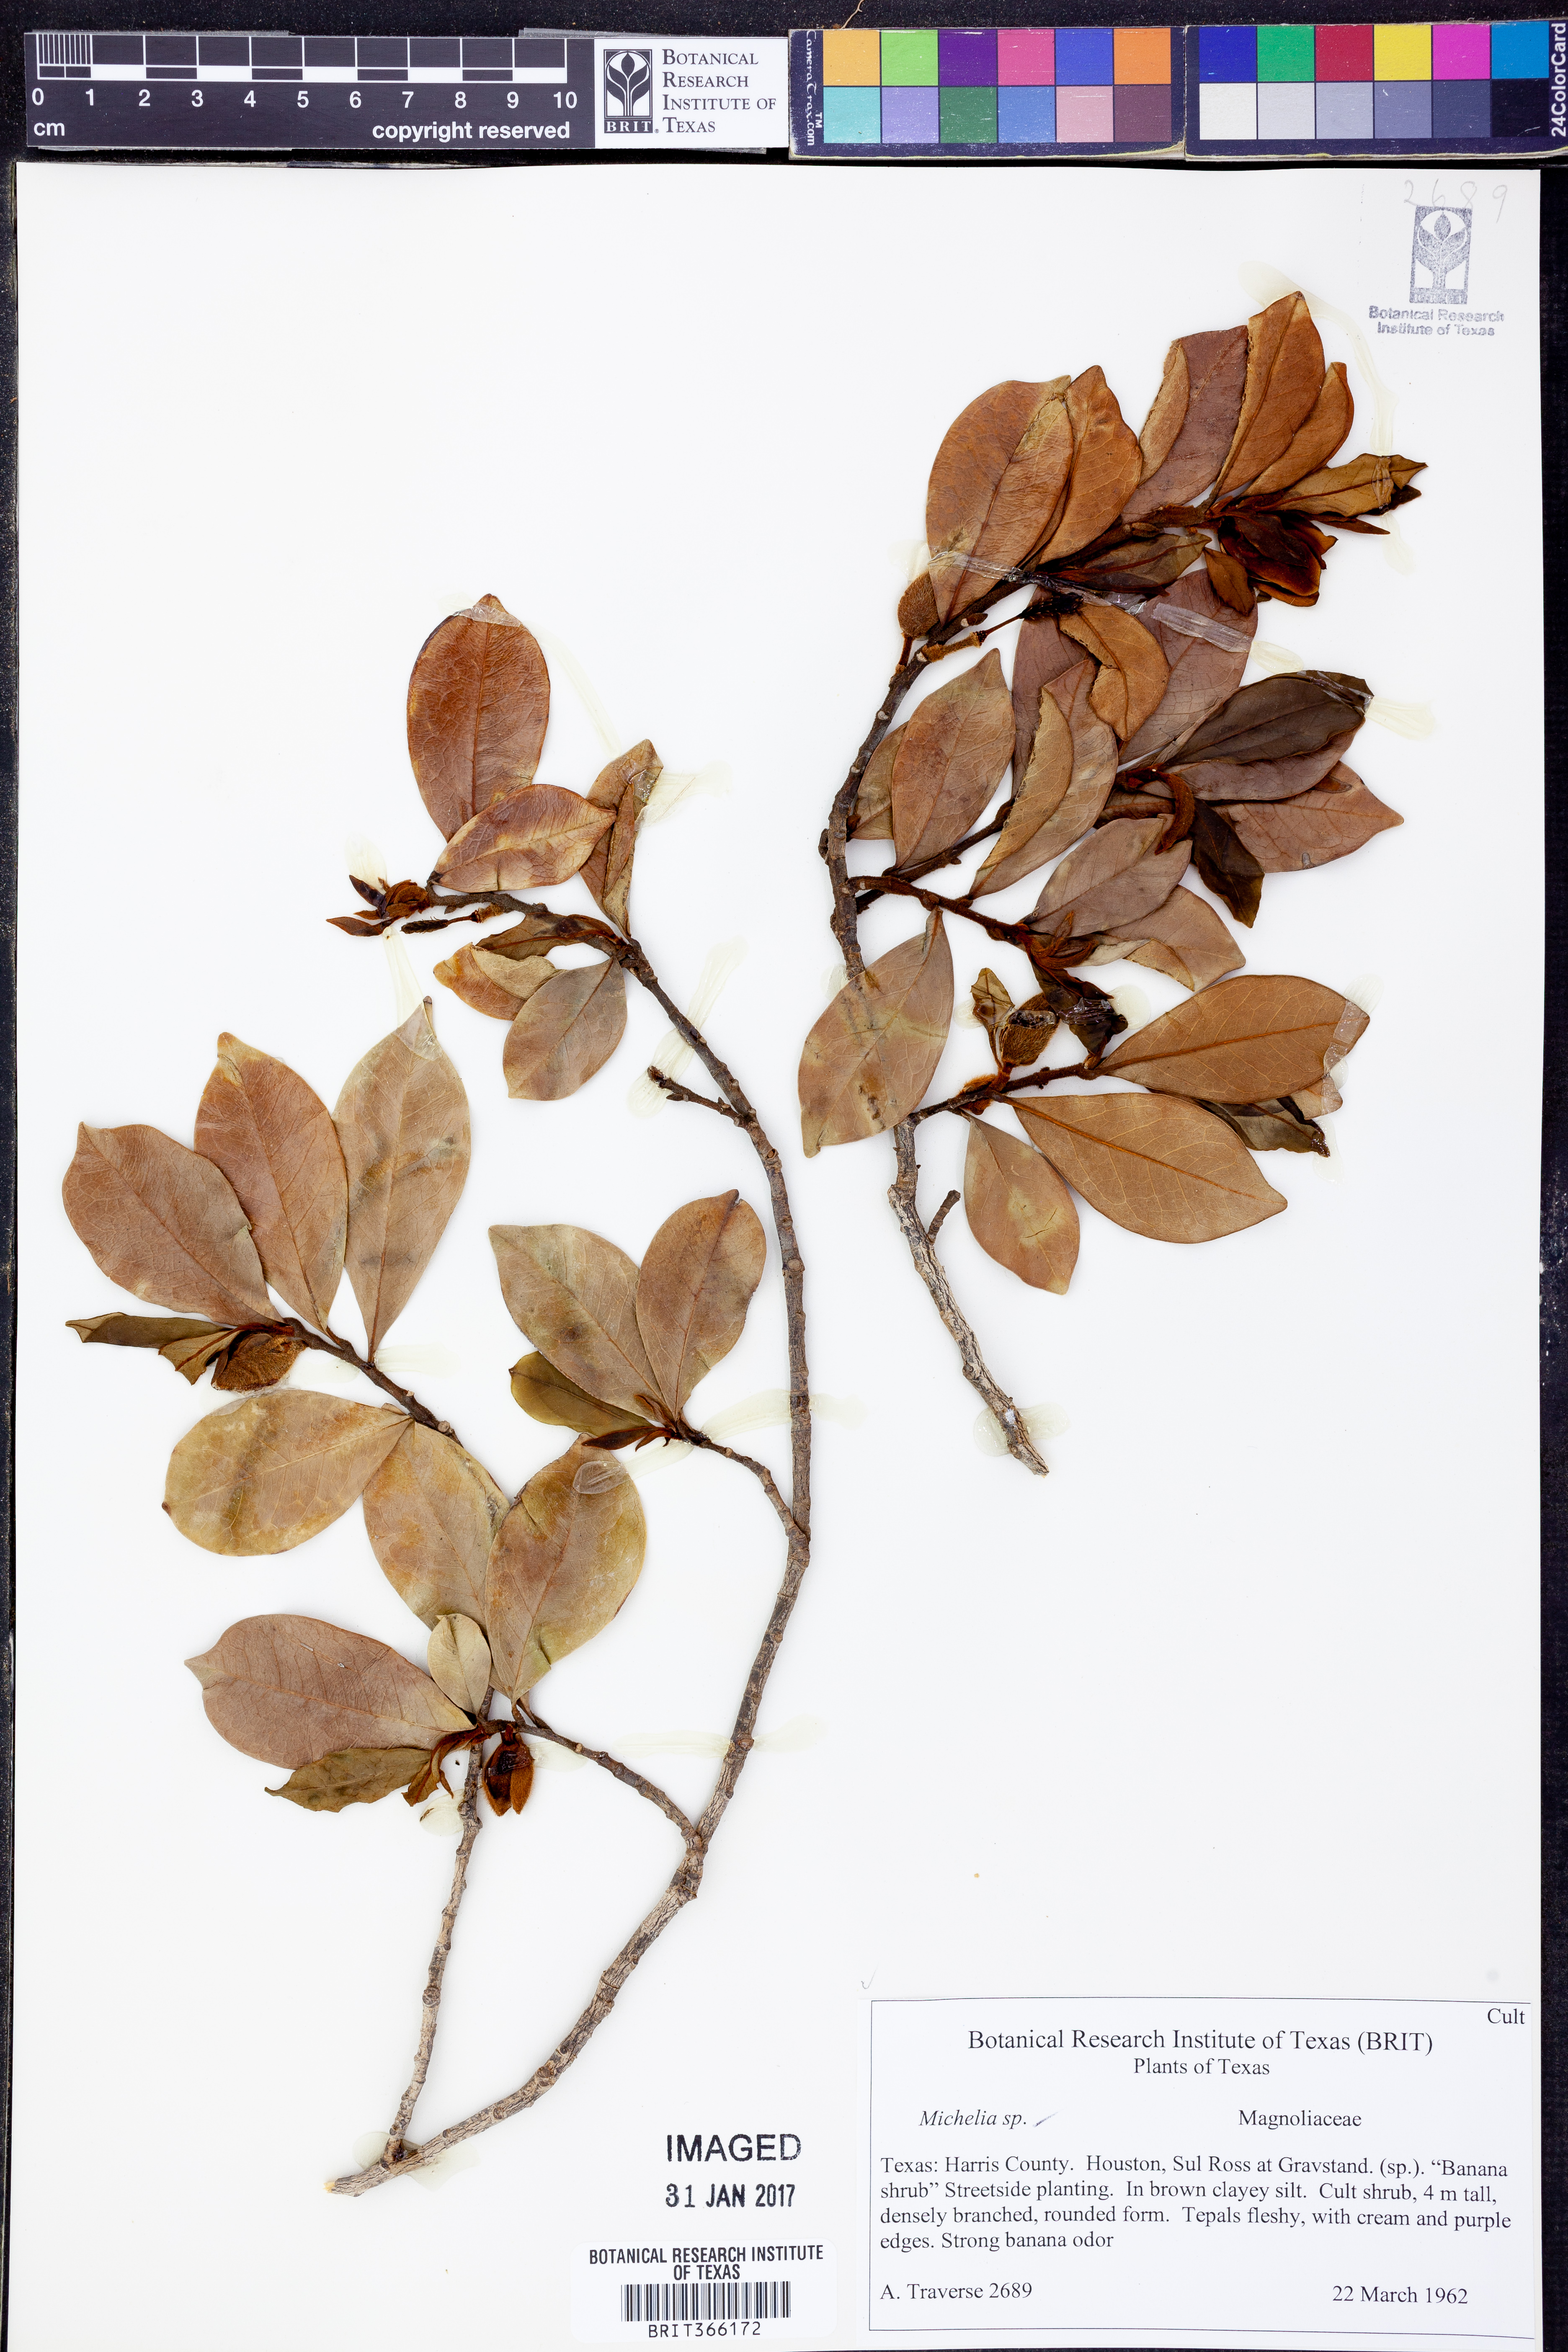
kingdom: Plantae
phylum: Tracheophyta
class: Magnoliopsida
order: Magnoliales
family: Magnoliaceae
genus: Michelia
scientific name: Michelia
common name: Michelia
